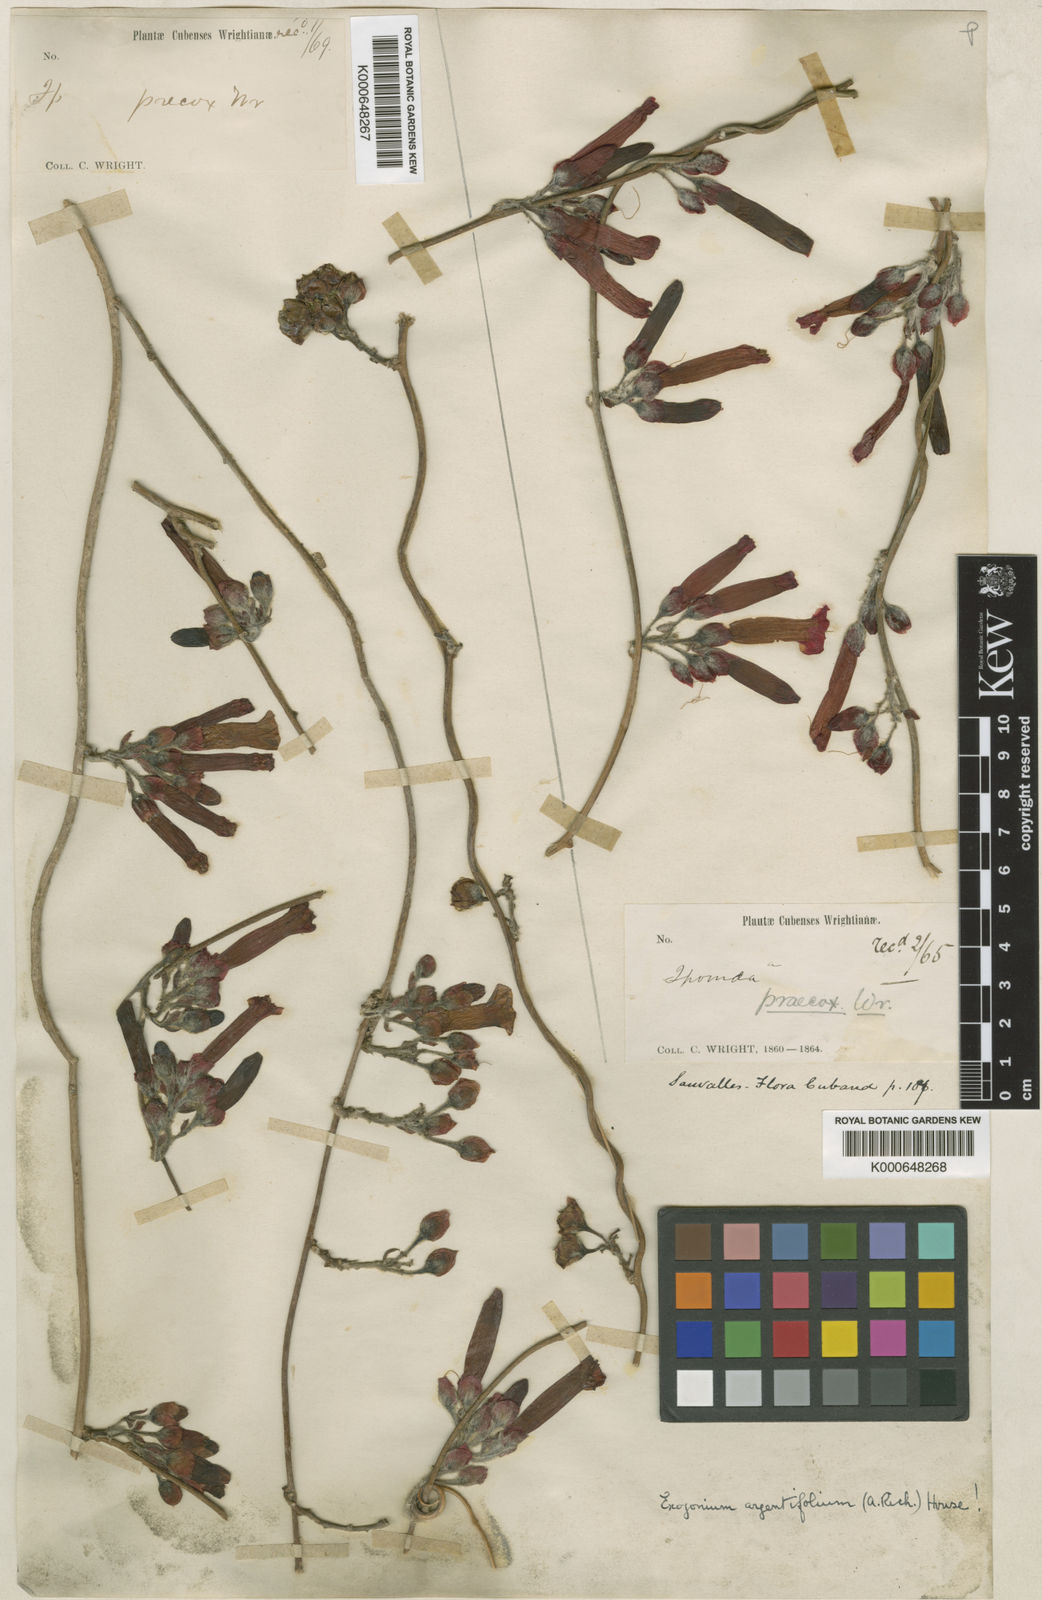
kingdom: Plantae
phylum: Tracheophyta
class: Magnoliopsida
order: Solanales
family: Convolvulaceae
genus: Ipomoea
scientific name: Ipomoea argentifolia
